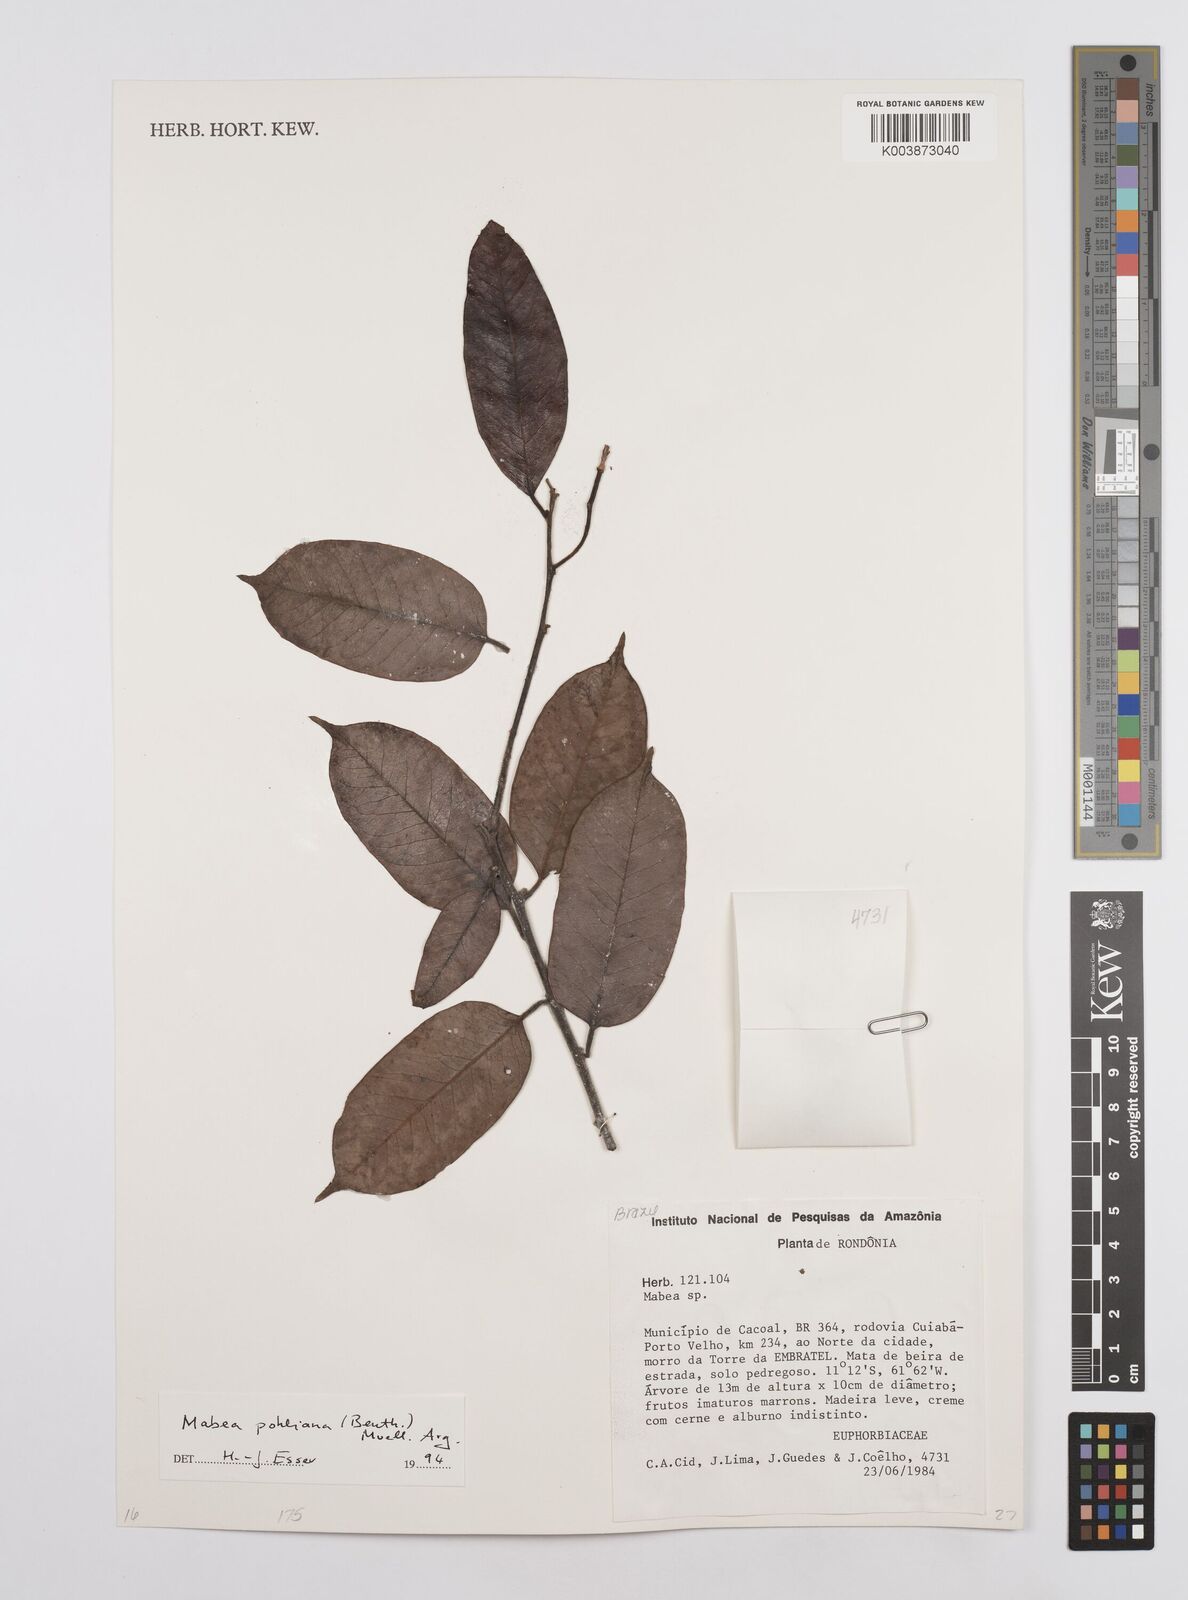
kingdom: Plantae
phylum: Tracheophyta
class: Magnoliopsida
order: Malpighiales
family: Euphorbiaceae
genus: Mabea
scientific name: Mabea pohliana
